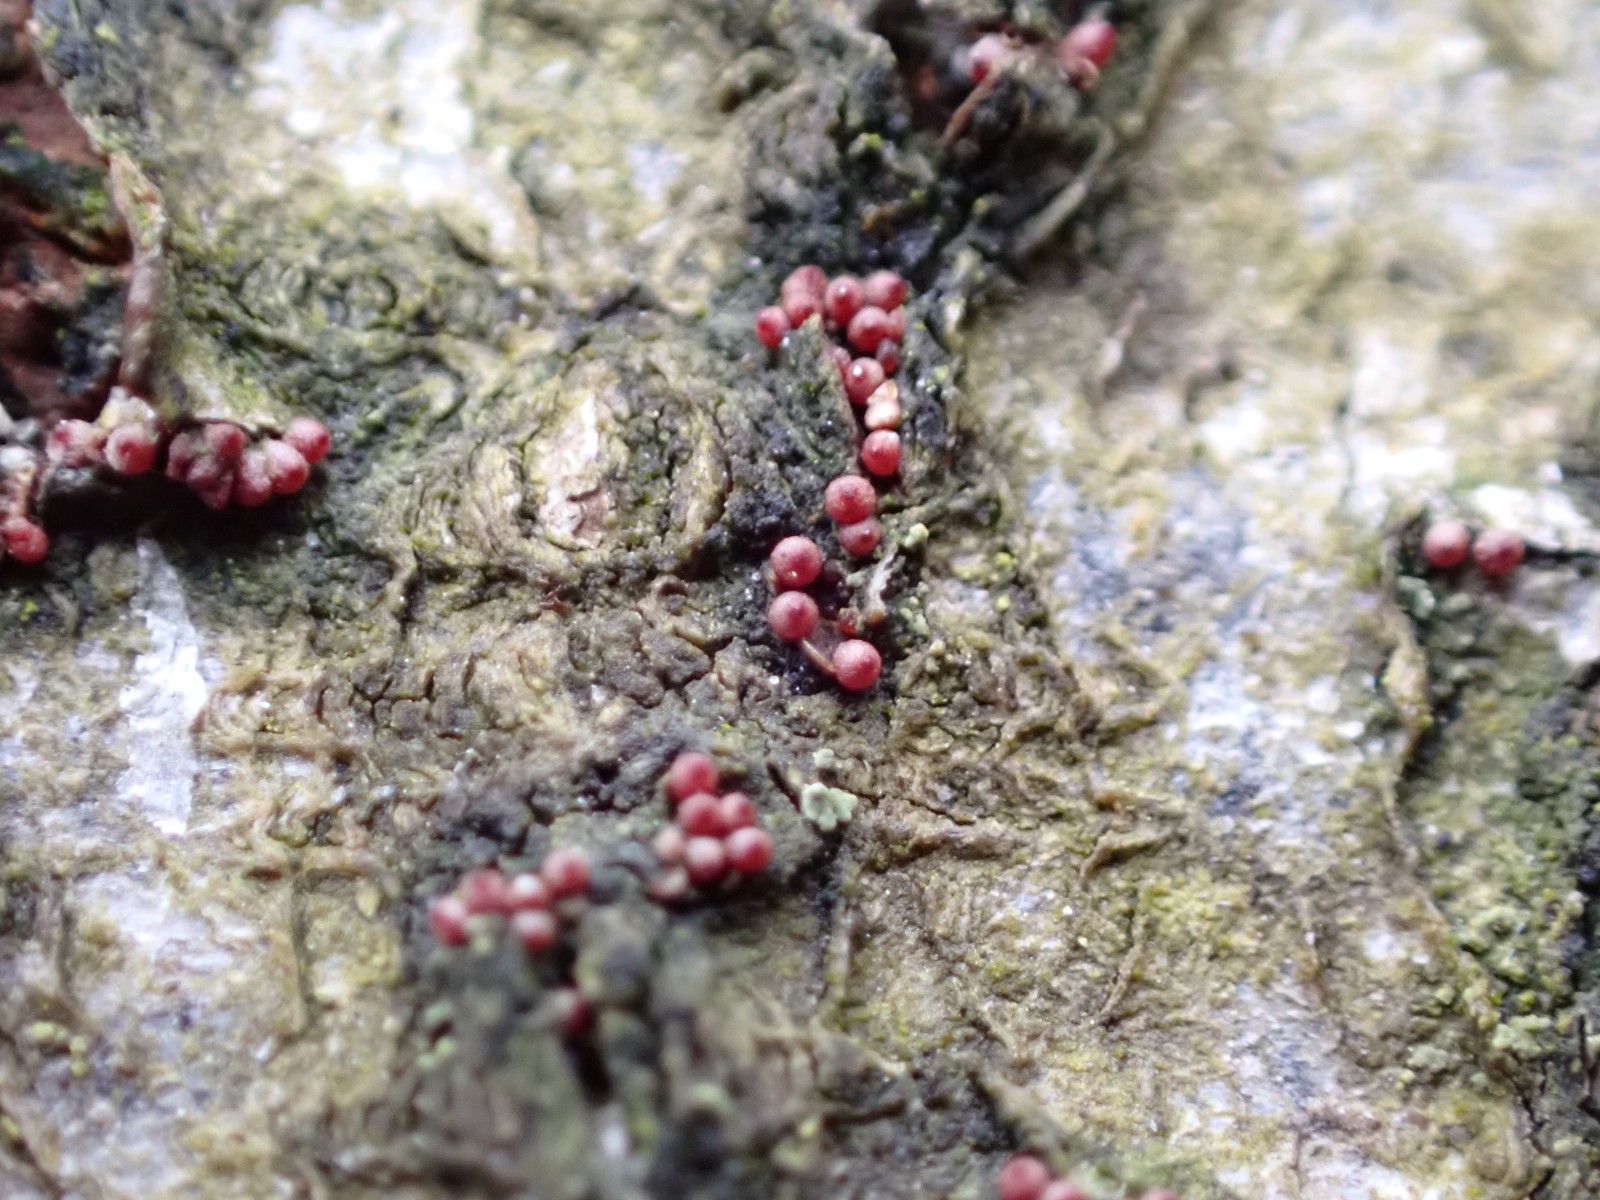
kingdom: Fungi
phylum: Ascomycota
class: Sordariomycetes
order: Hypocreales
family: Nectriaceae
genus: Neonectria
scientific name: Neonectria coccinea
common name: bøgebark-cinnobersvamp
